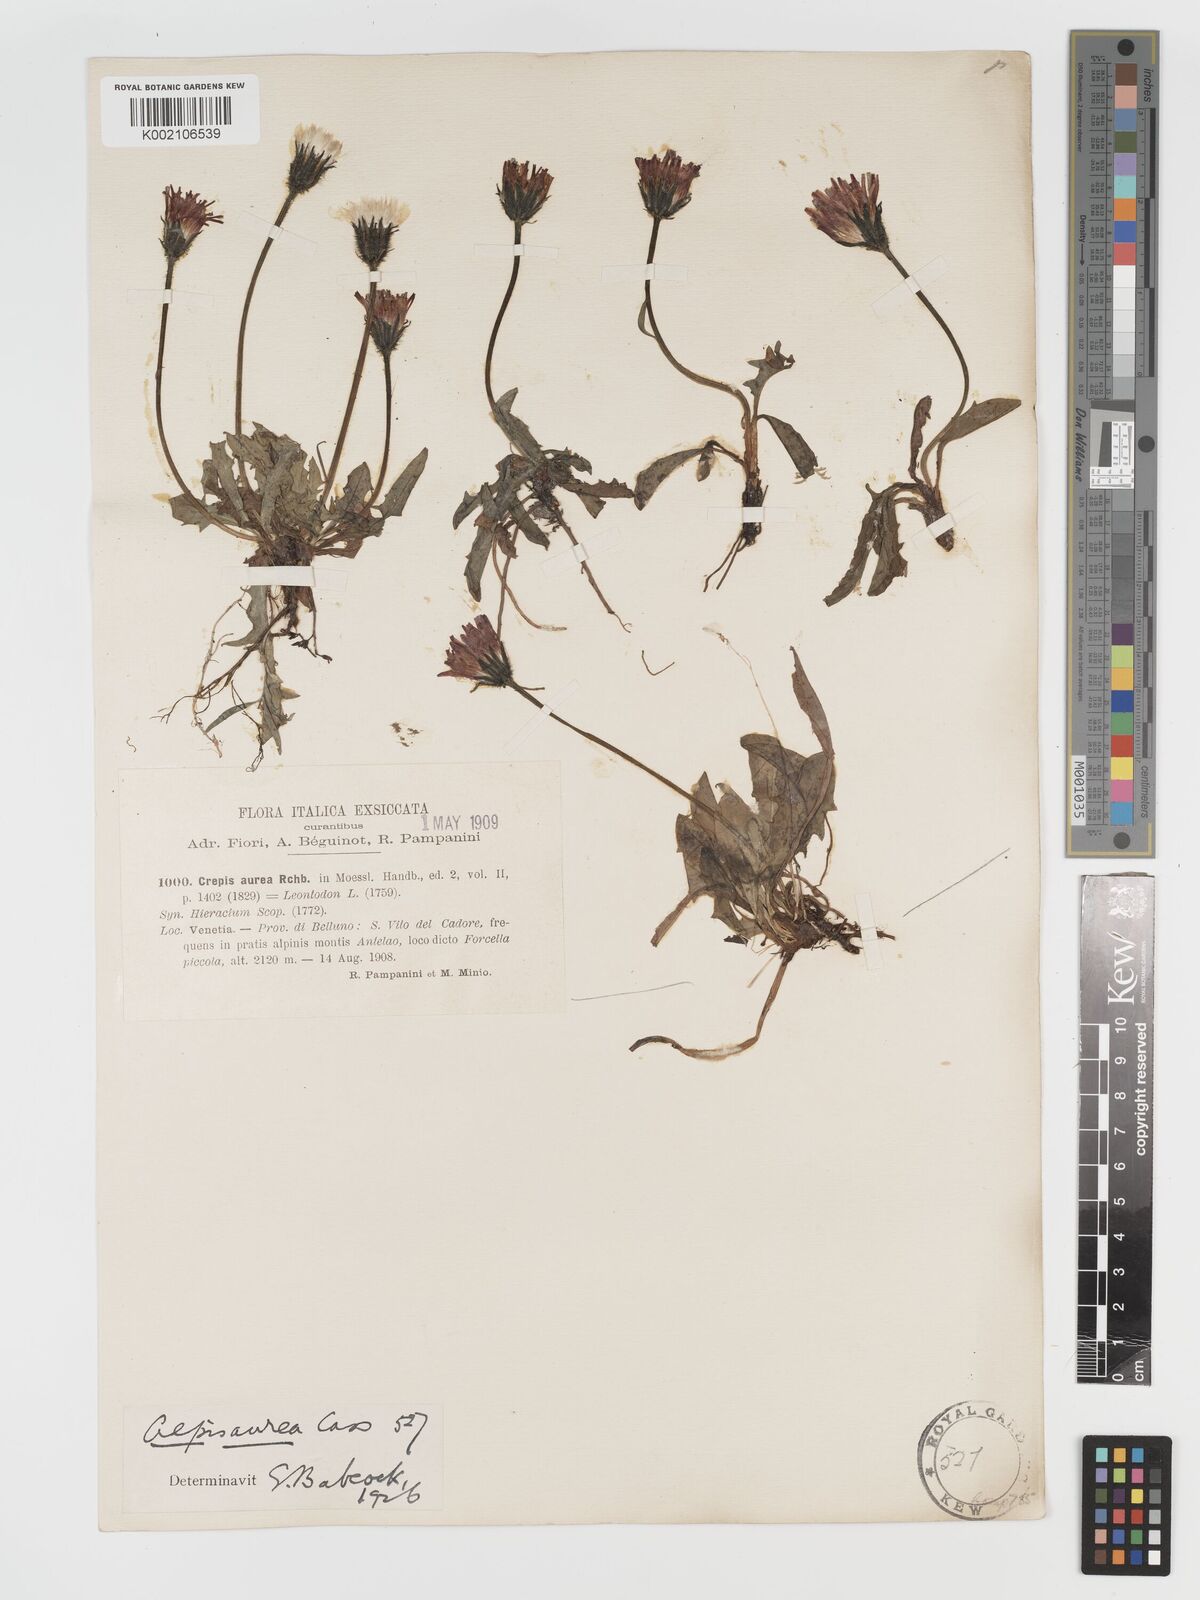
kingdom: Plantae
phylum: Tracheophyta
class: Magnoliopsida
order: Asterales
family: Asteraceae
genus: Crepis
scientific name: Crepis aurea
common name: Golden hawk's-beard
